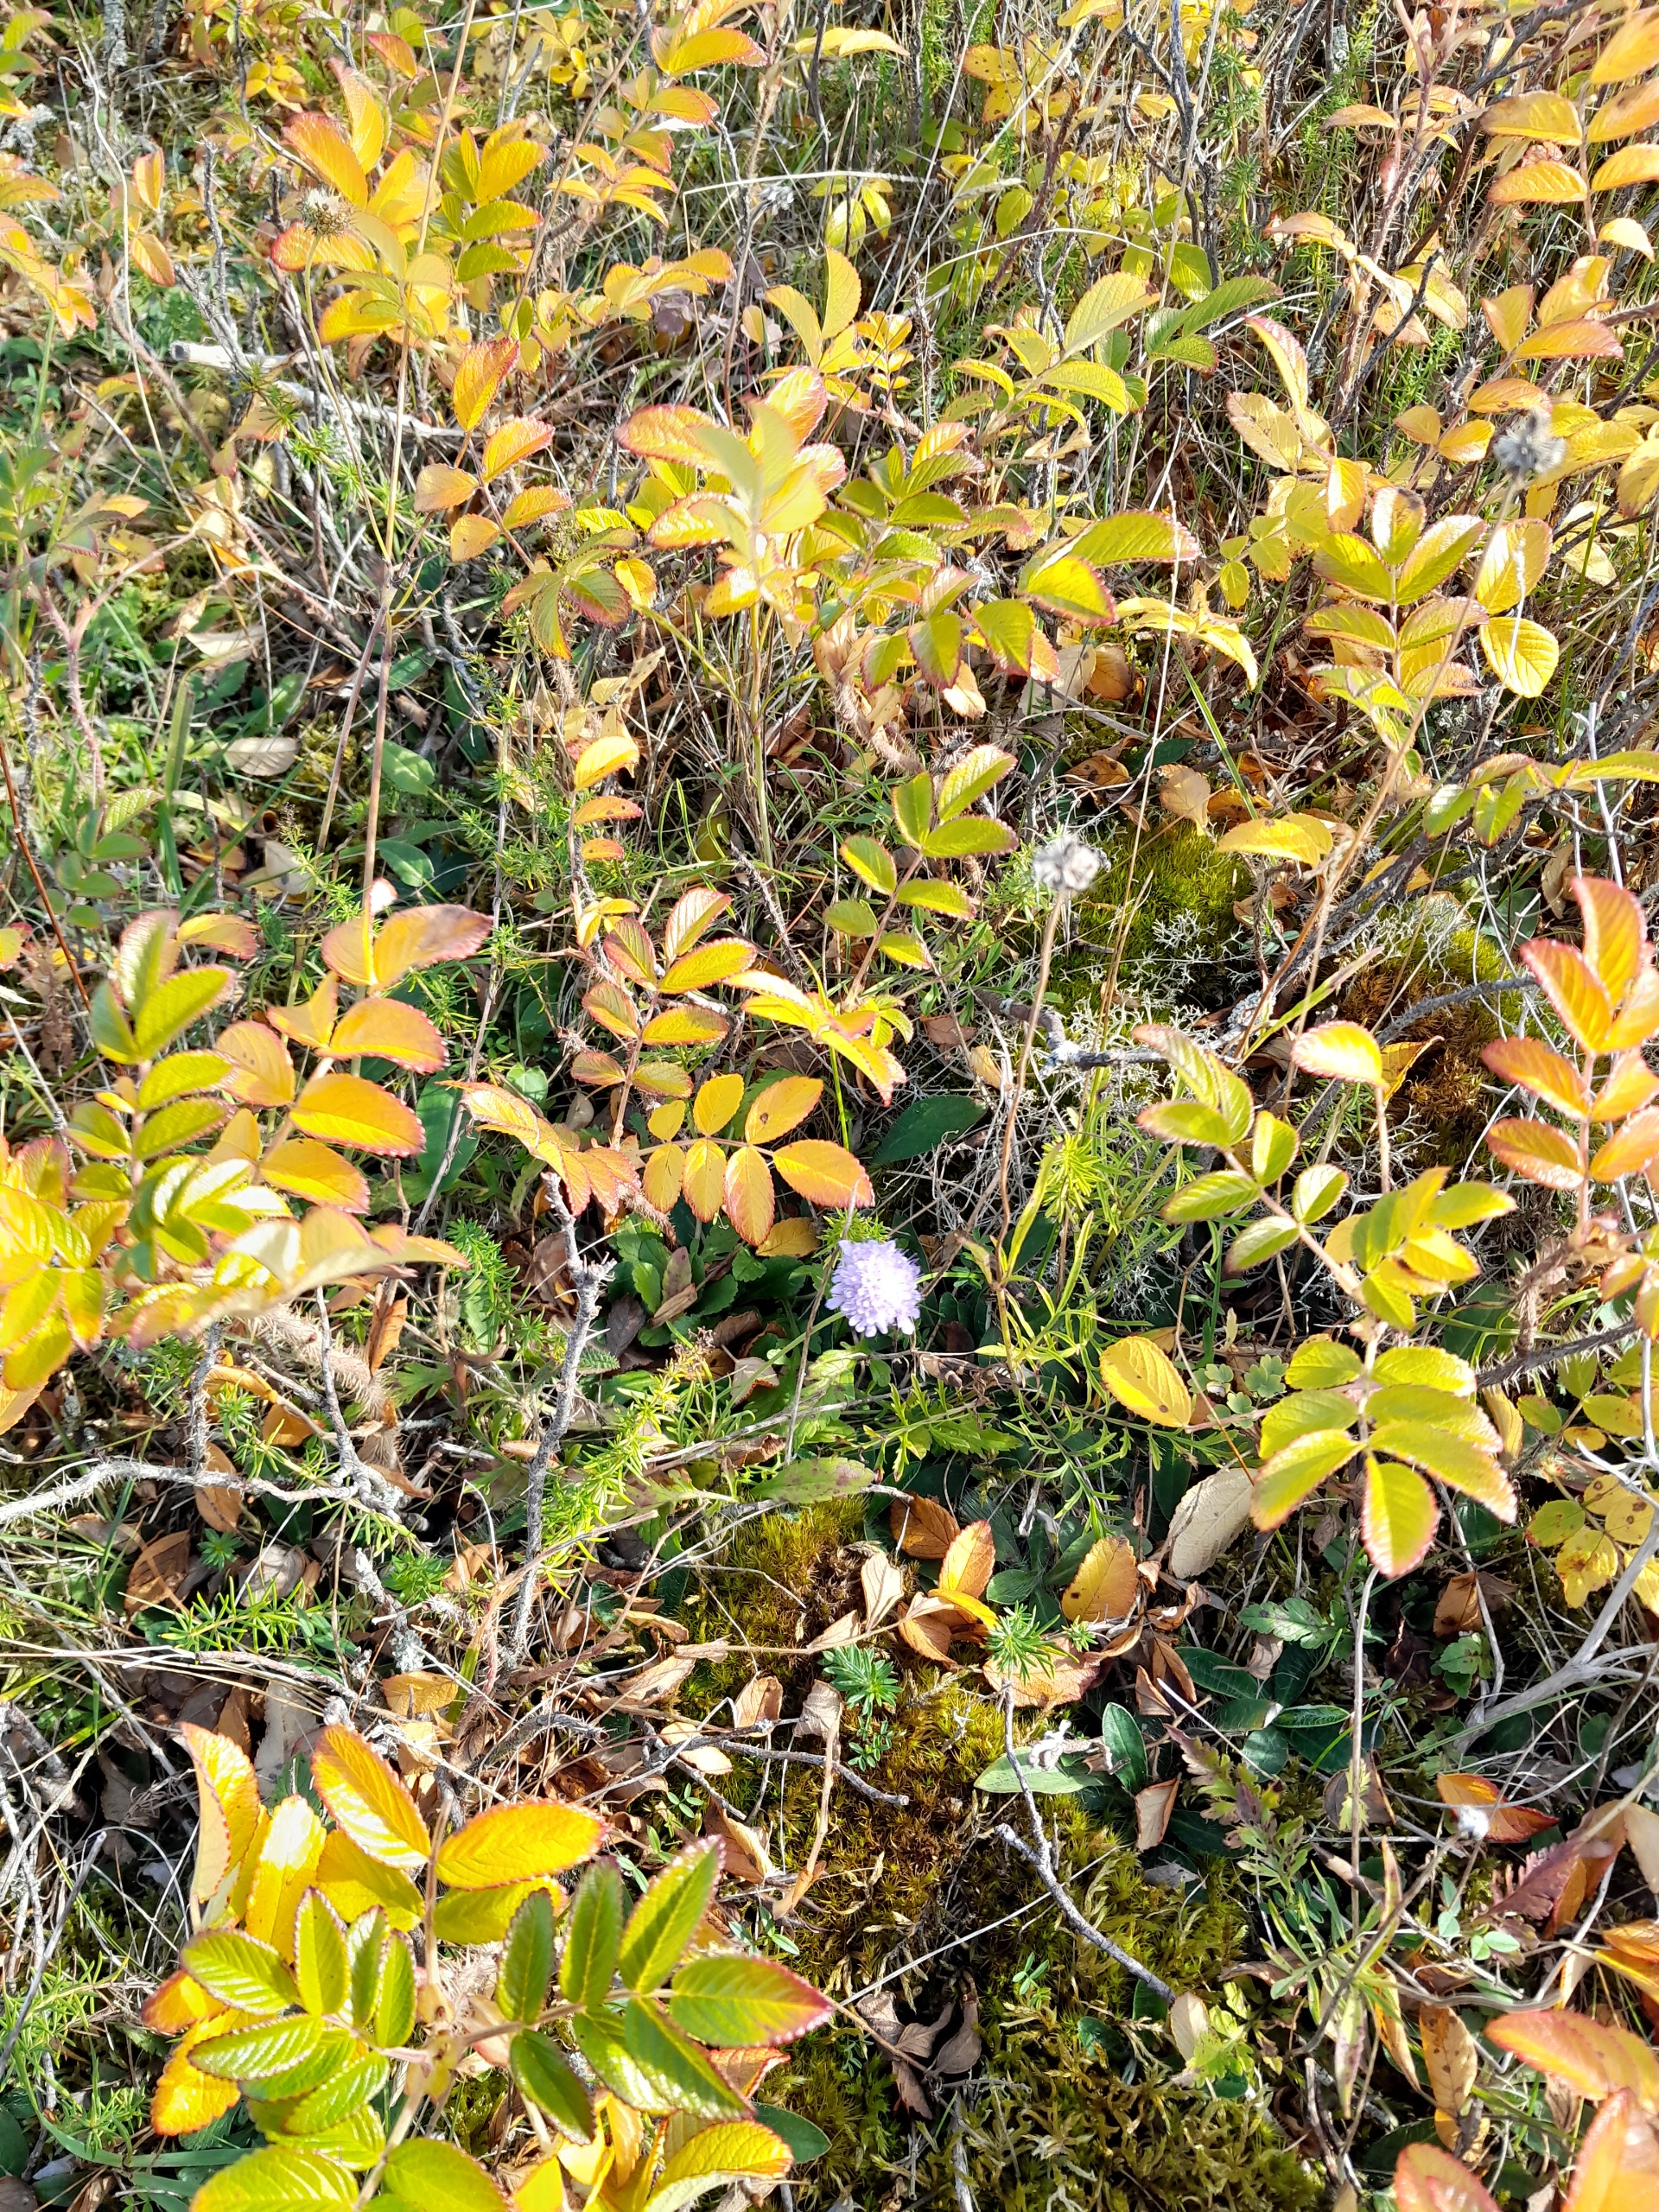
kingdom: Plantae
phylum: Tracheophyta
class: Magnoliopsida
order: Dipsacales
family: Caprifoliaceae
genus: Scabiosa
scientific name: Scabiosa columbaria
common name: Due-skabiose
